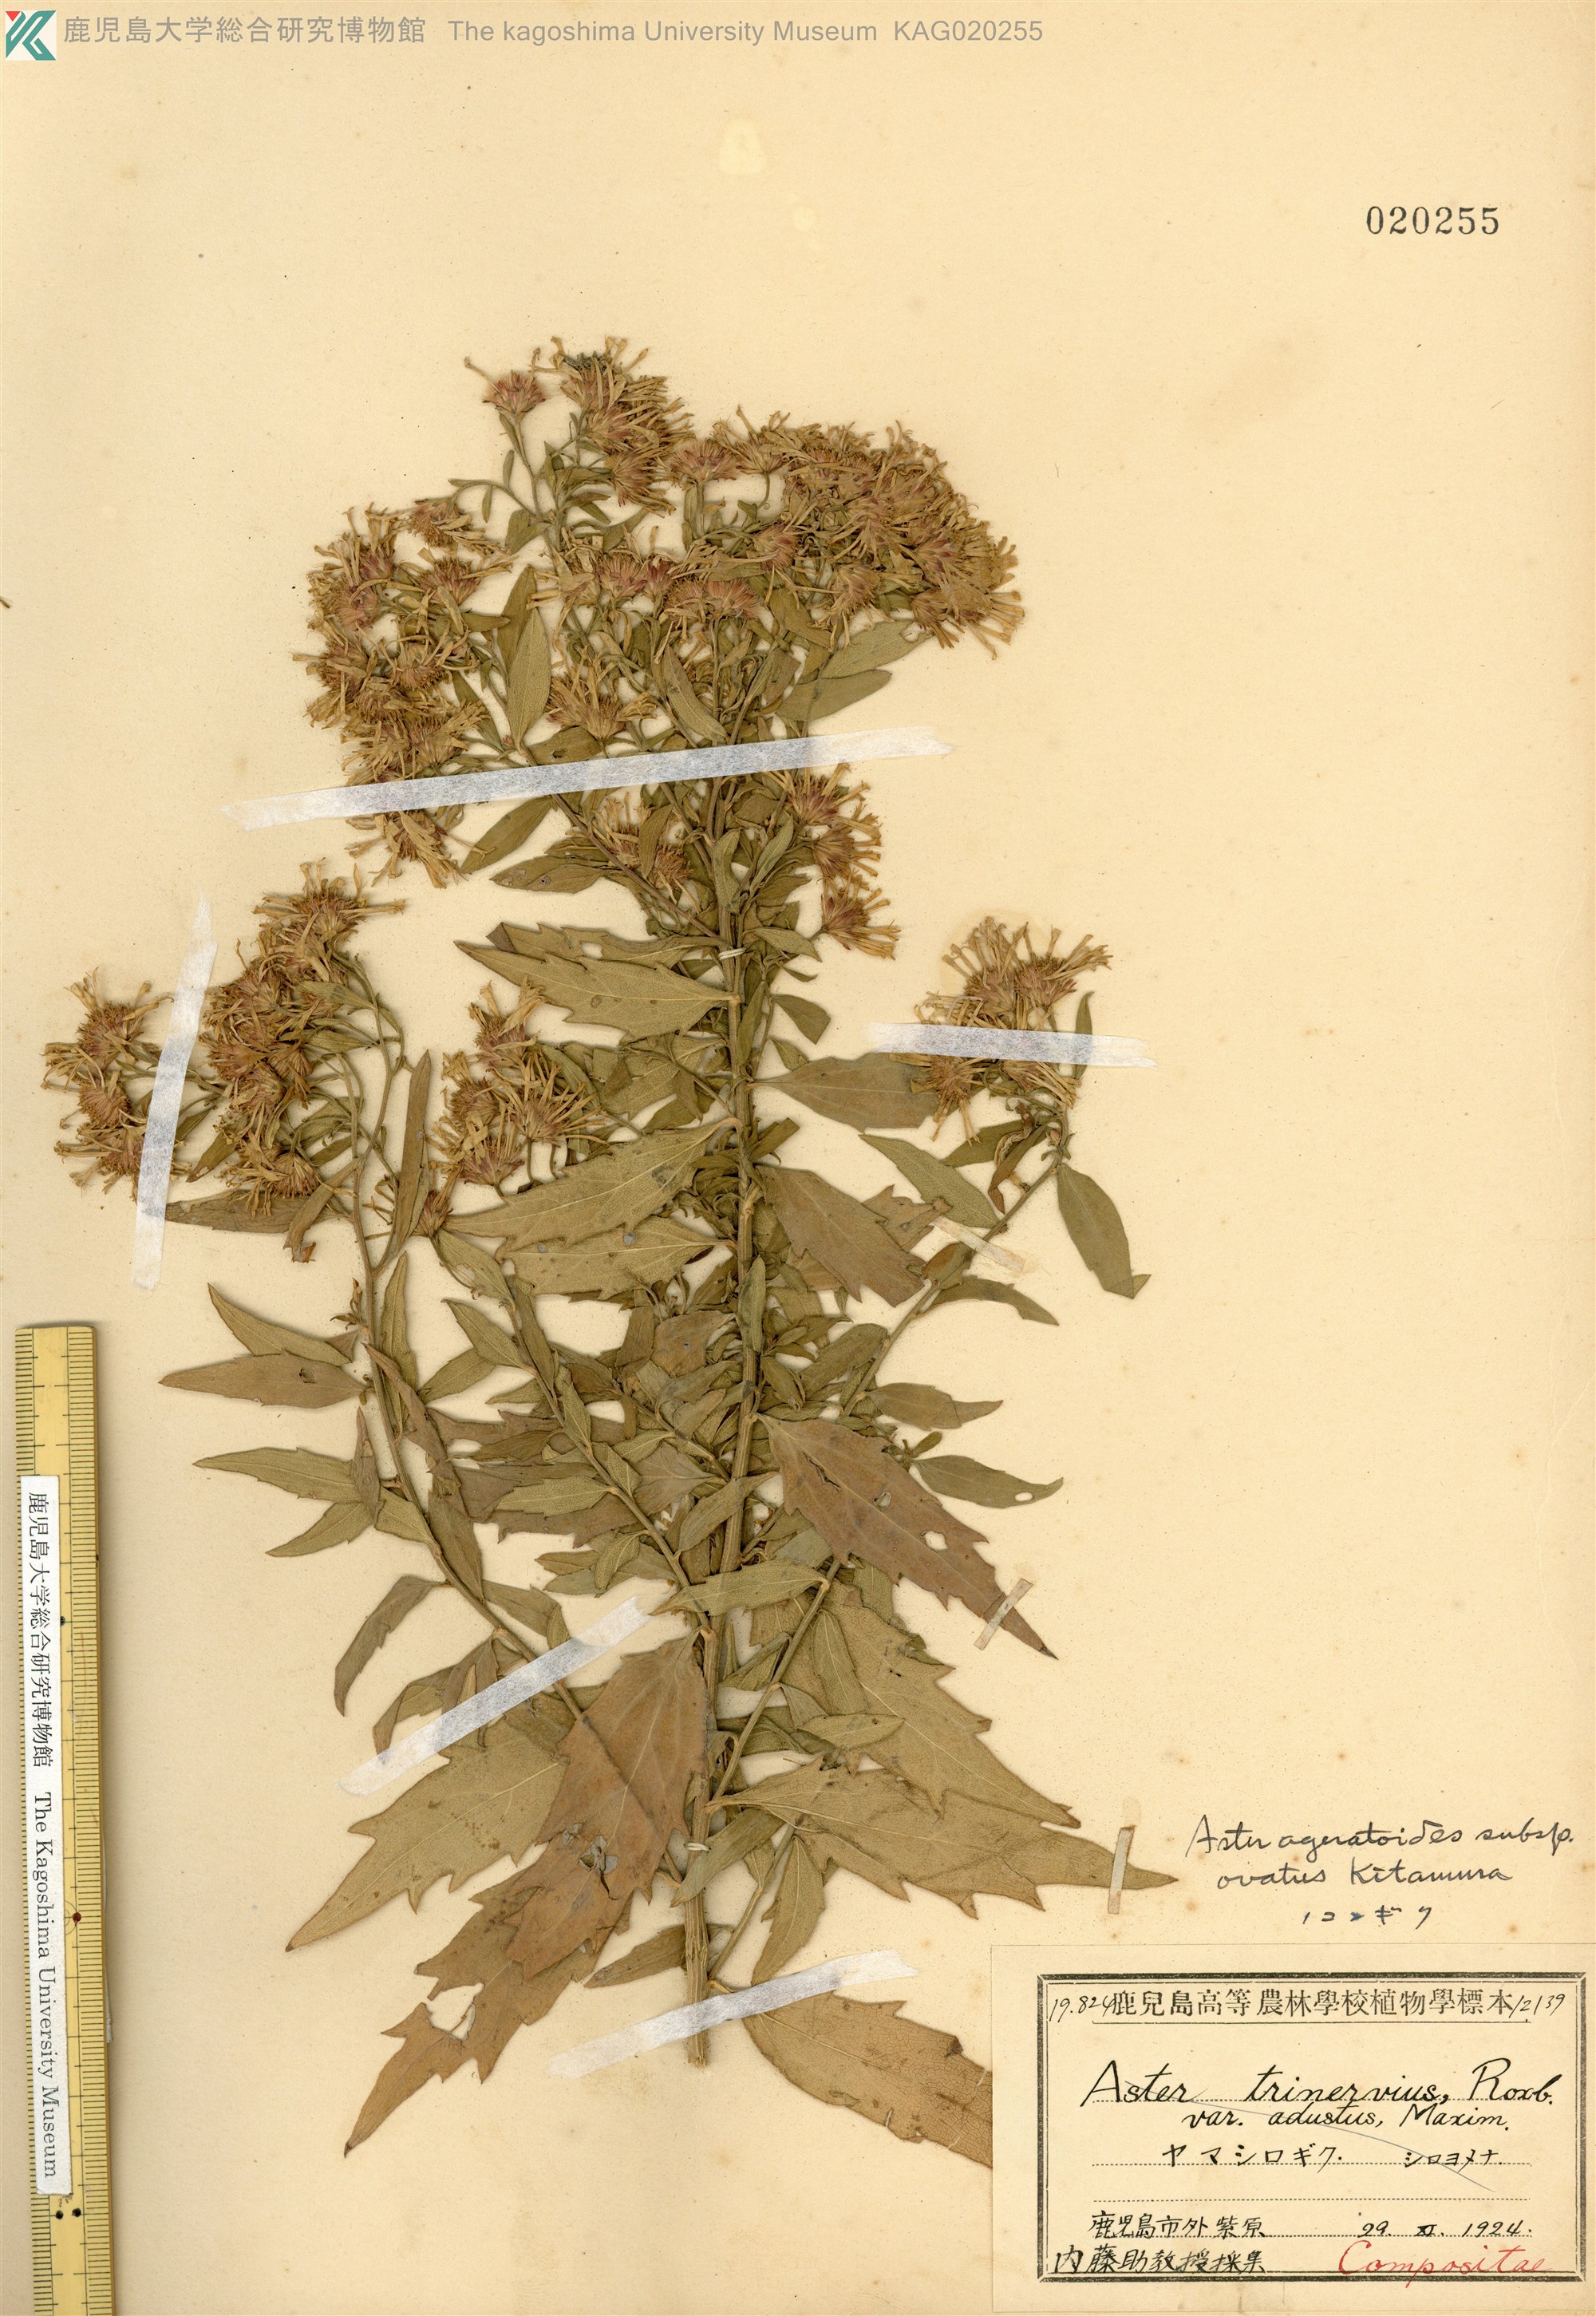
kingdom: Plantae
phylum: Tracheophyta
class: Magnoliopsida
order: Asterales
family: Asteraceae
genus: Aster
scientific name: Aster microcephalus
